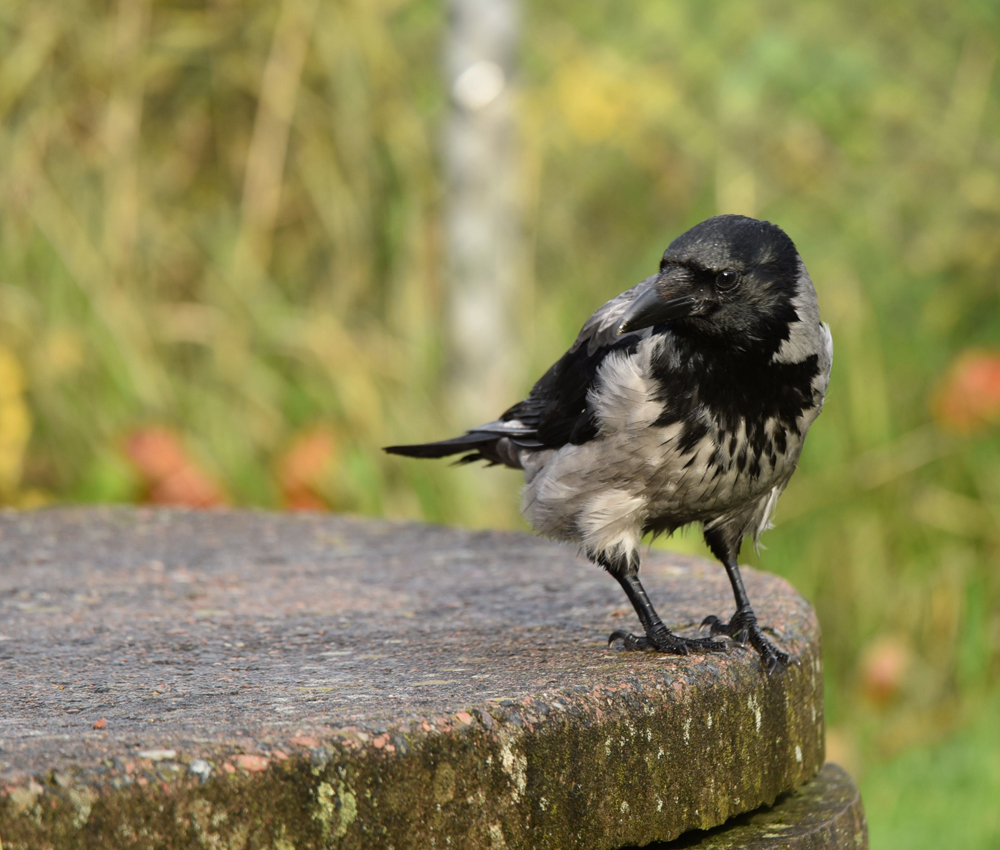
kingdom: Animalia
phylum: Chordata
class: Aves
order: Passeriformes
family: Corvidae
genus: Corvus
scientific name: Corvus cornix
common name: Hooded crow
